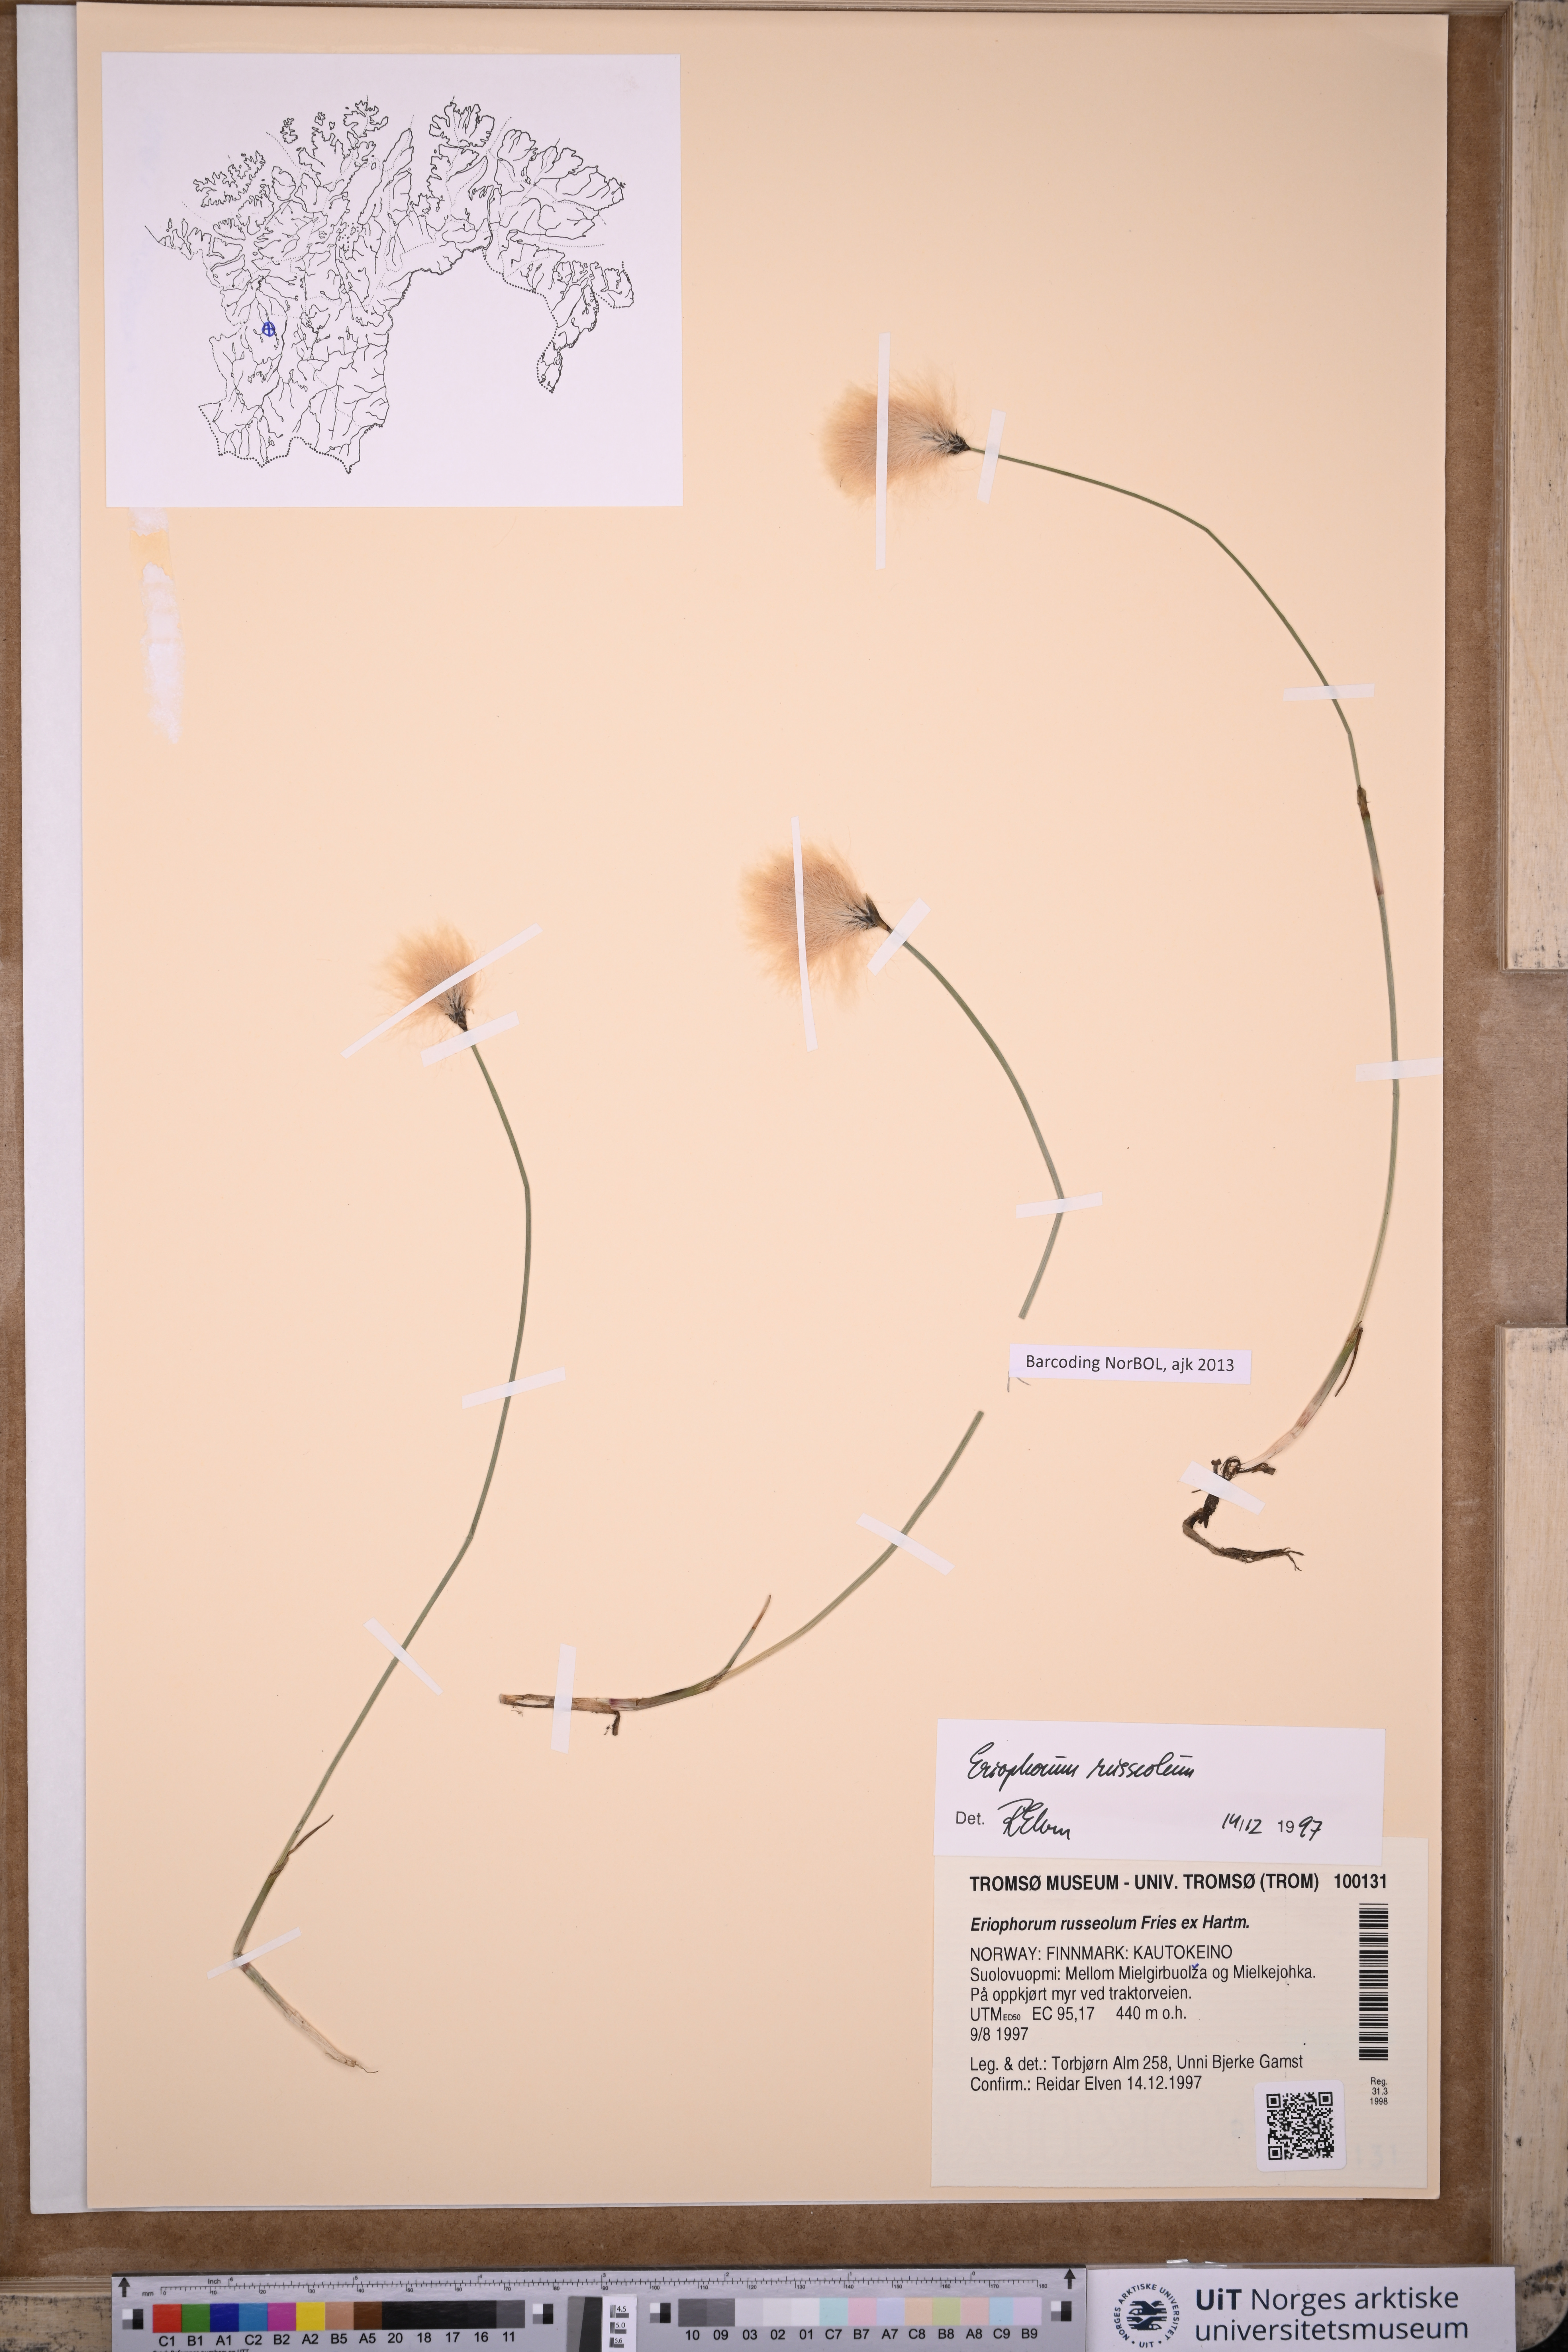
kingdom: Plantae
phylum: Tracheophyta
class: Liliopsida
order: Poales
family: Cyperaceae
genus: Eriophorum
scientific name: Eriophorum russeolum
